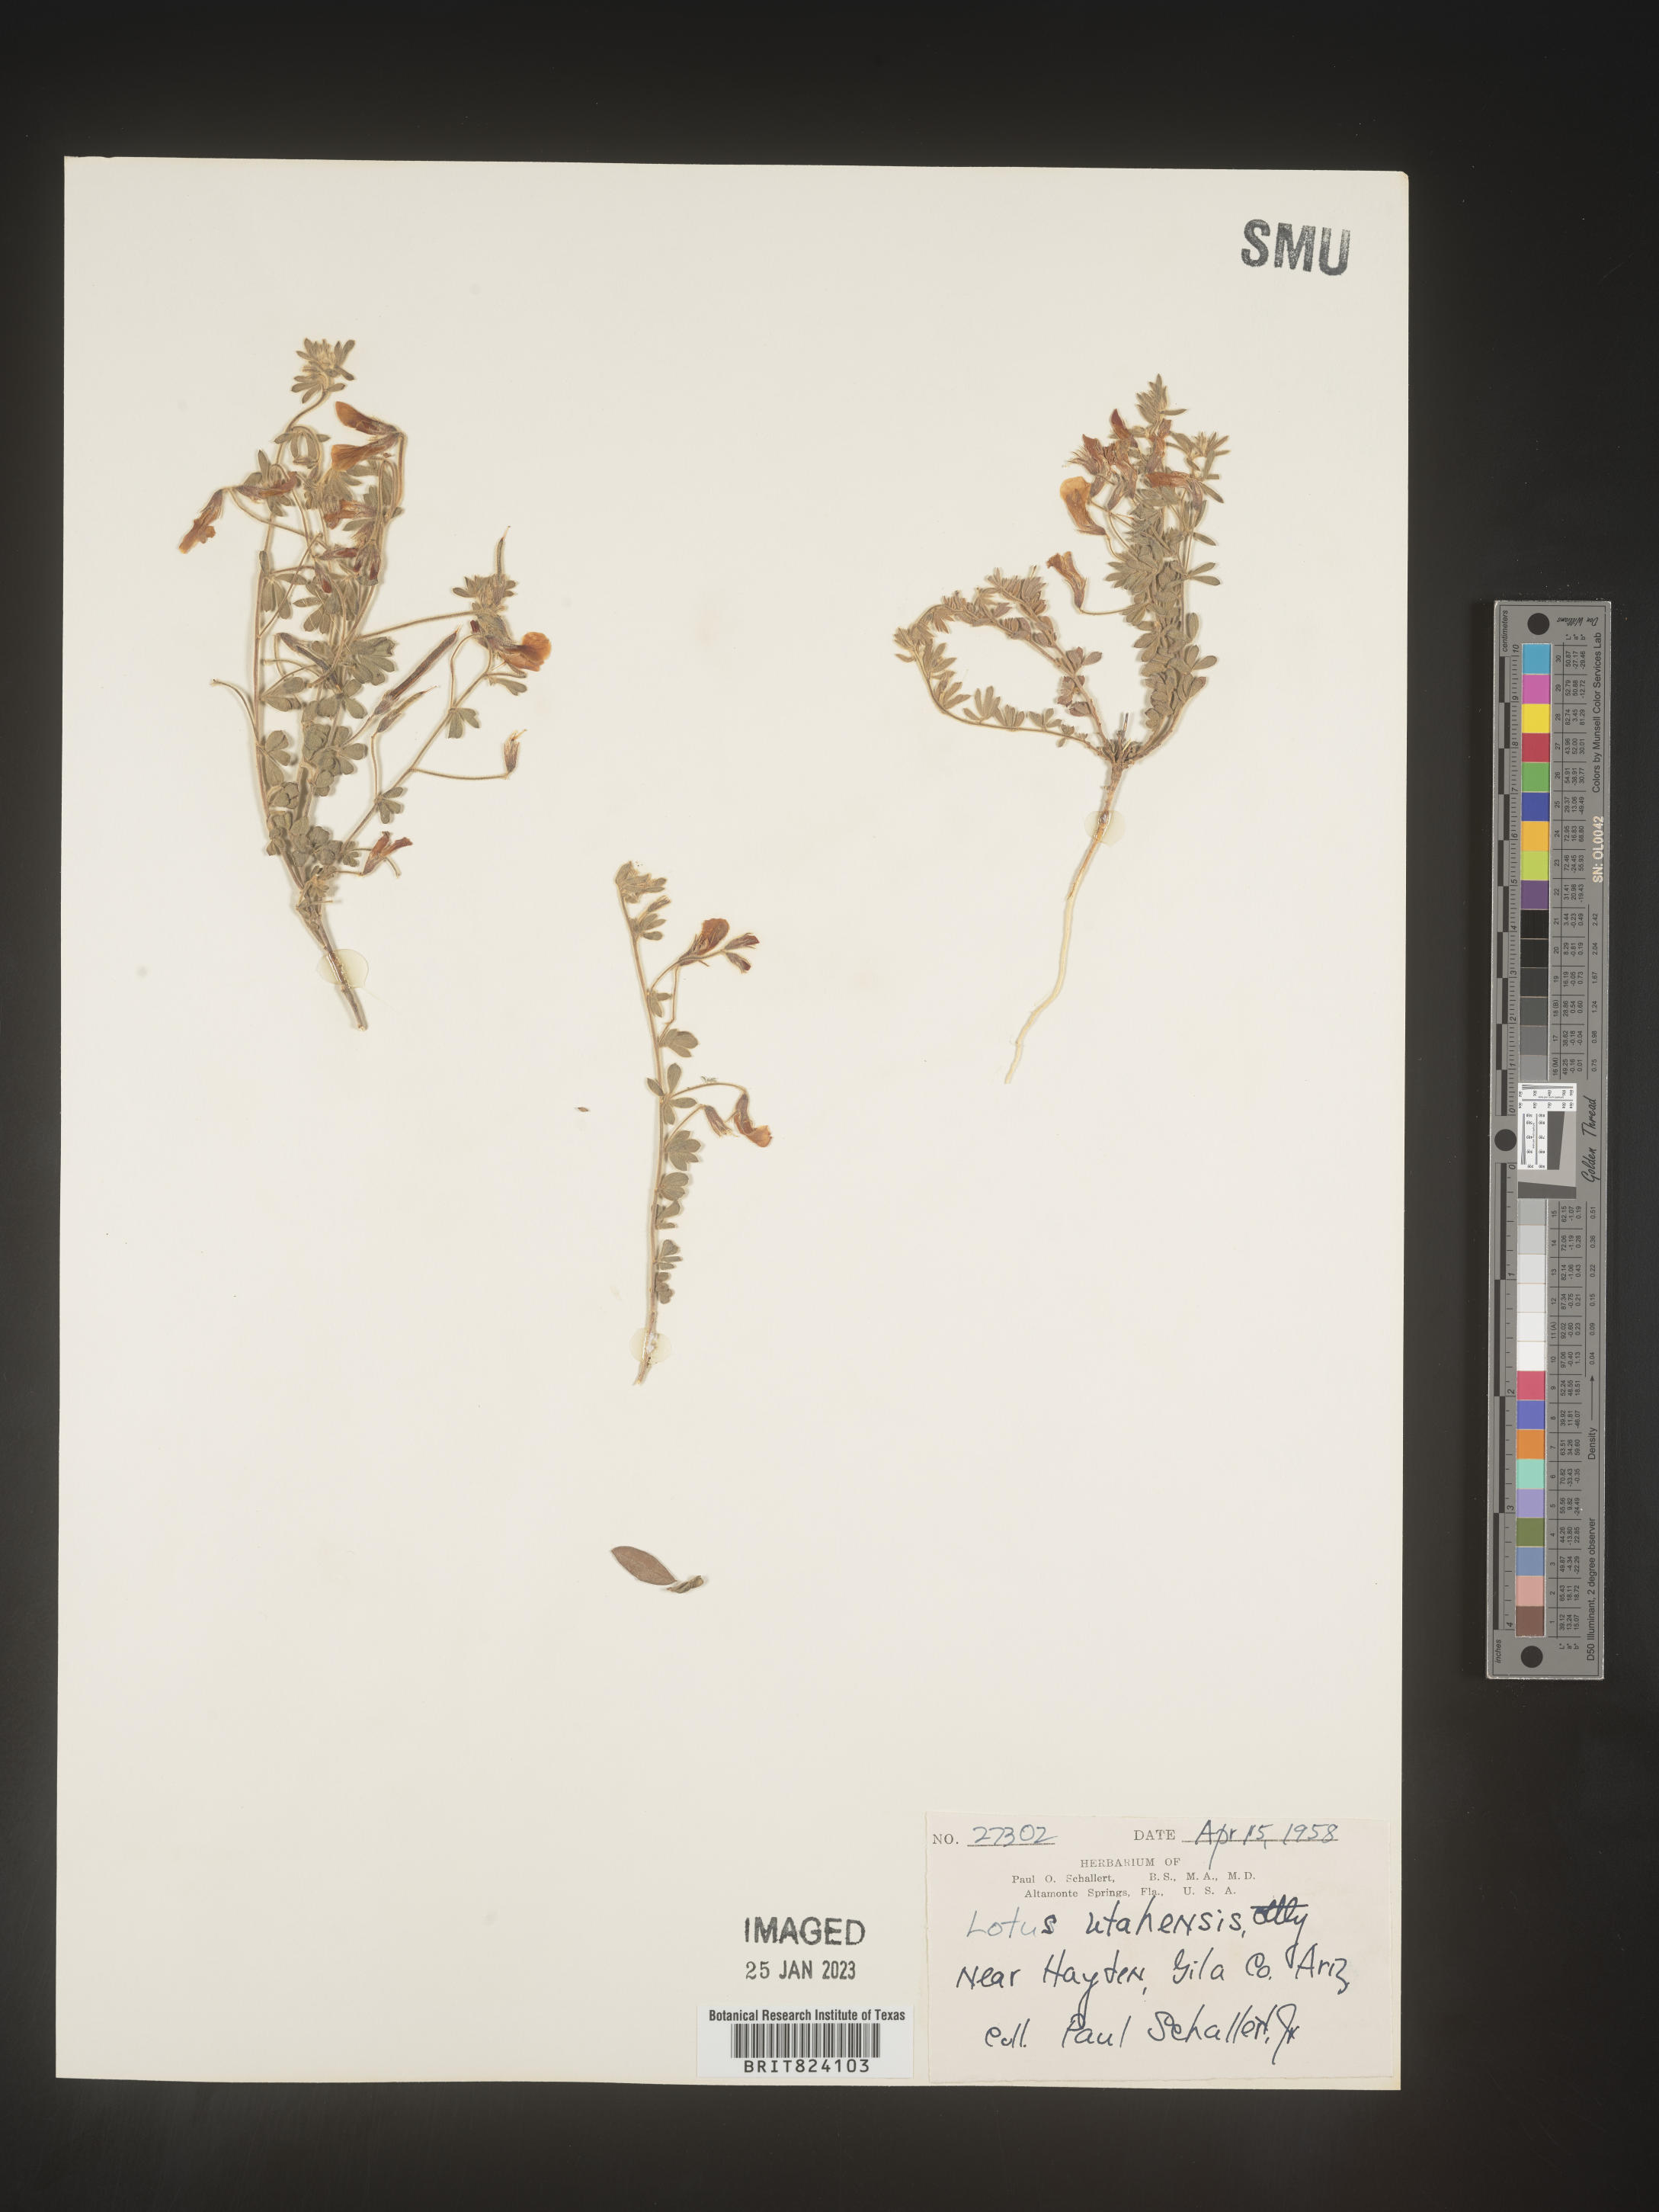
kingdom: Plantae
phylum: Tracheophyta
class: Magnoliopsida
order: Fabales
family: Fabaceae
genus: Acmispon
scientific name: Acmispon wrightii
